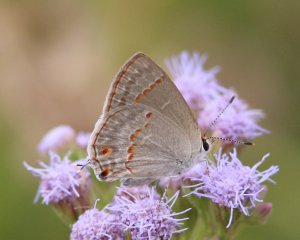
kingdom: Animalia
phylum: Arthropoda
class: Insecta
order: Lepidoptera
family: Lycaenidae
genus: Thecla
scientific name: Thecla rufofusca
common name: Red-crescent Scrub-Hairstreak
